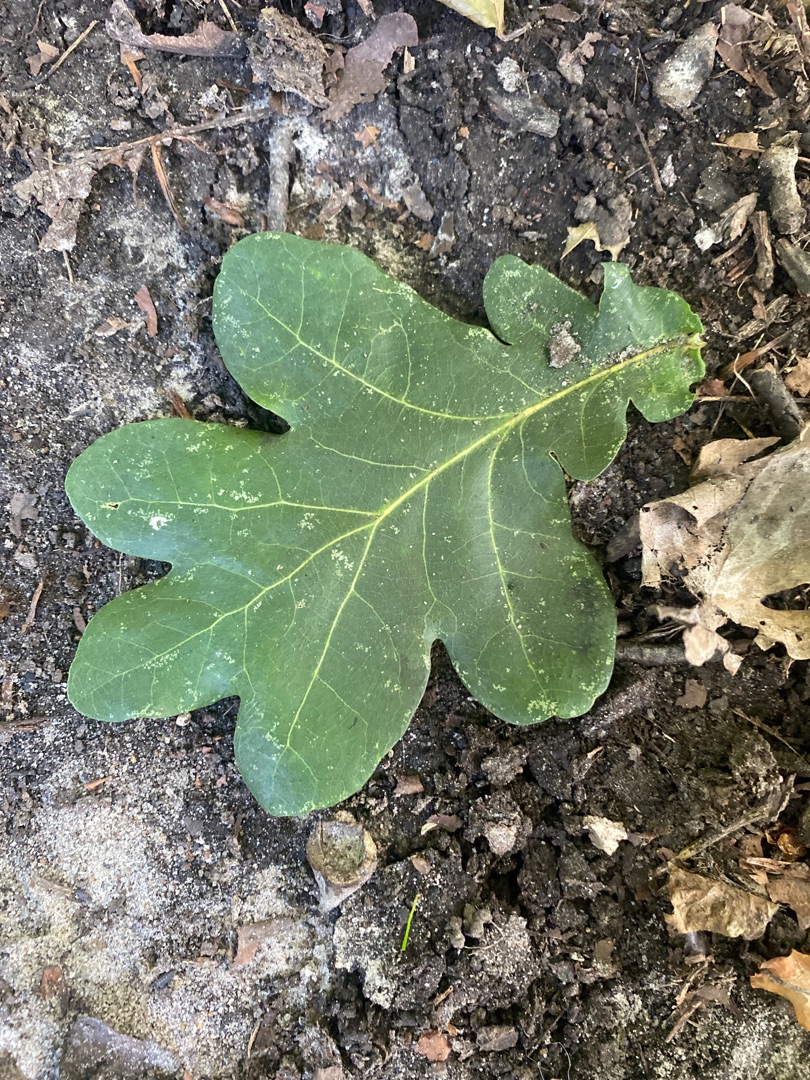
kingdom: Plantae
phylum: Tracheophyta
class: Magnoliopsida
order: Fagales
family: Fagaceae
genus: Quercus
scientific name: Quercus robur
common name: Stilk-eg/almindelig eg
